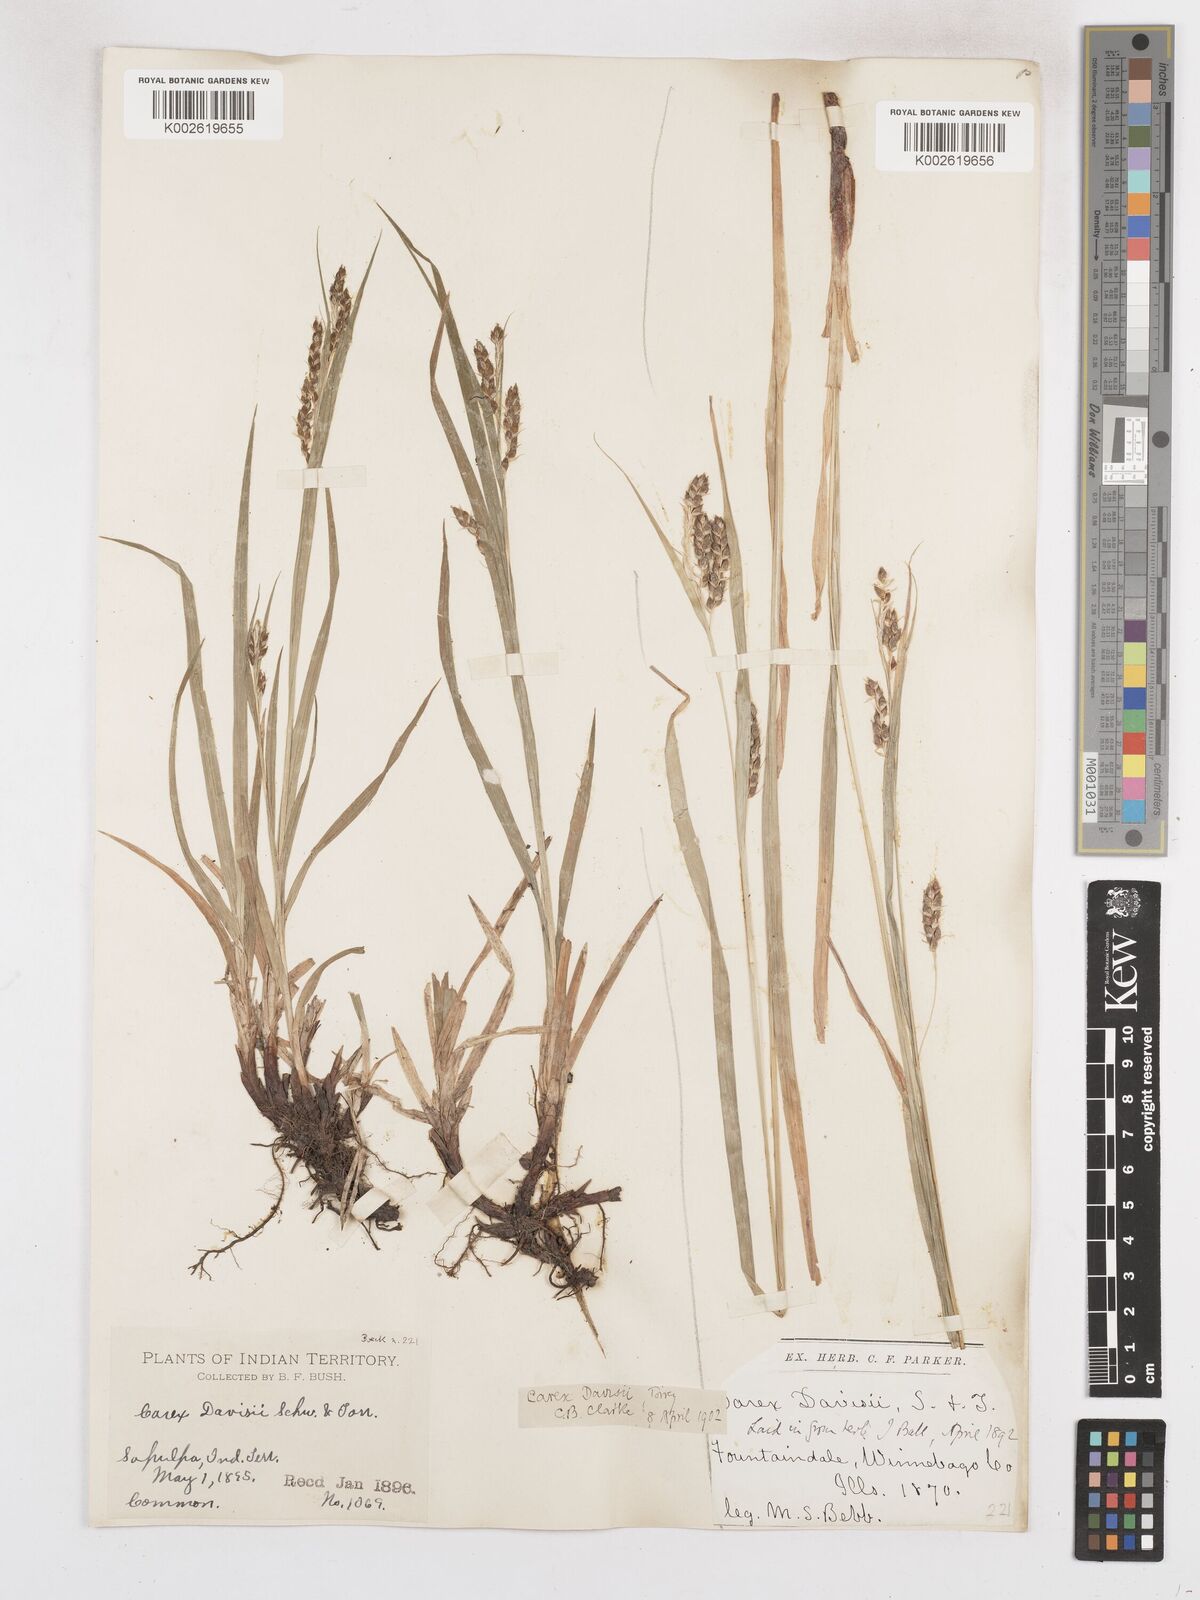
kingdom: Plantae
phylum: Tracheophyta
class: Liliopsida
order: Poales
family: Cyperaceae
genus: Carex
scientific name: Carex davisii
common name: Davis' sedge
